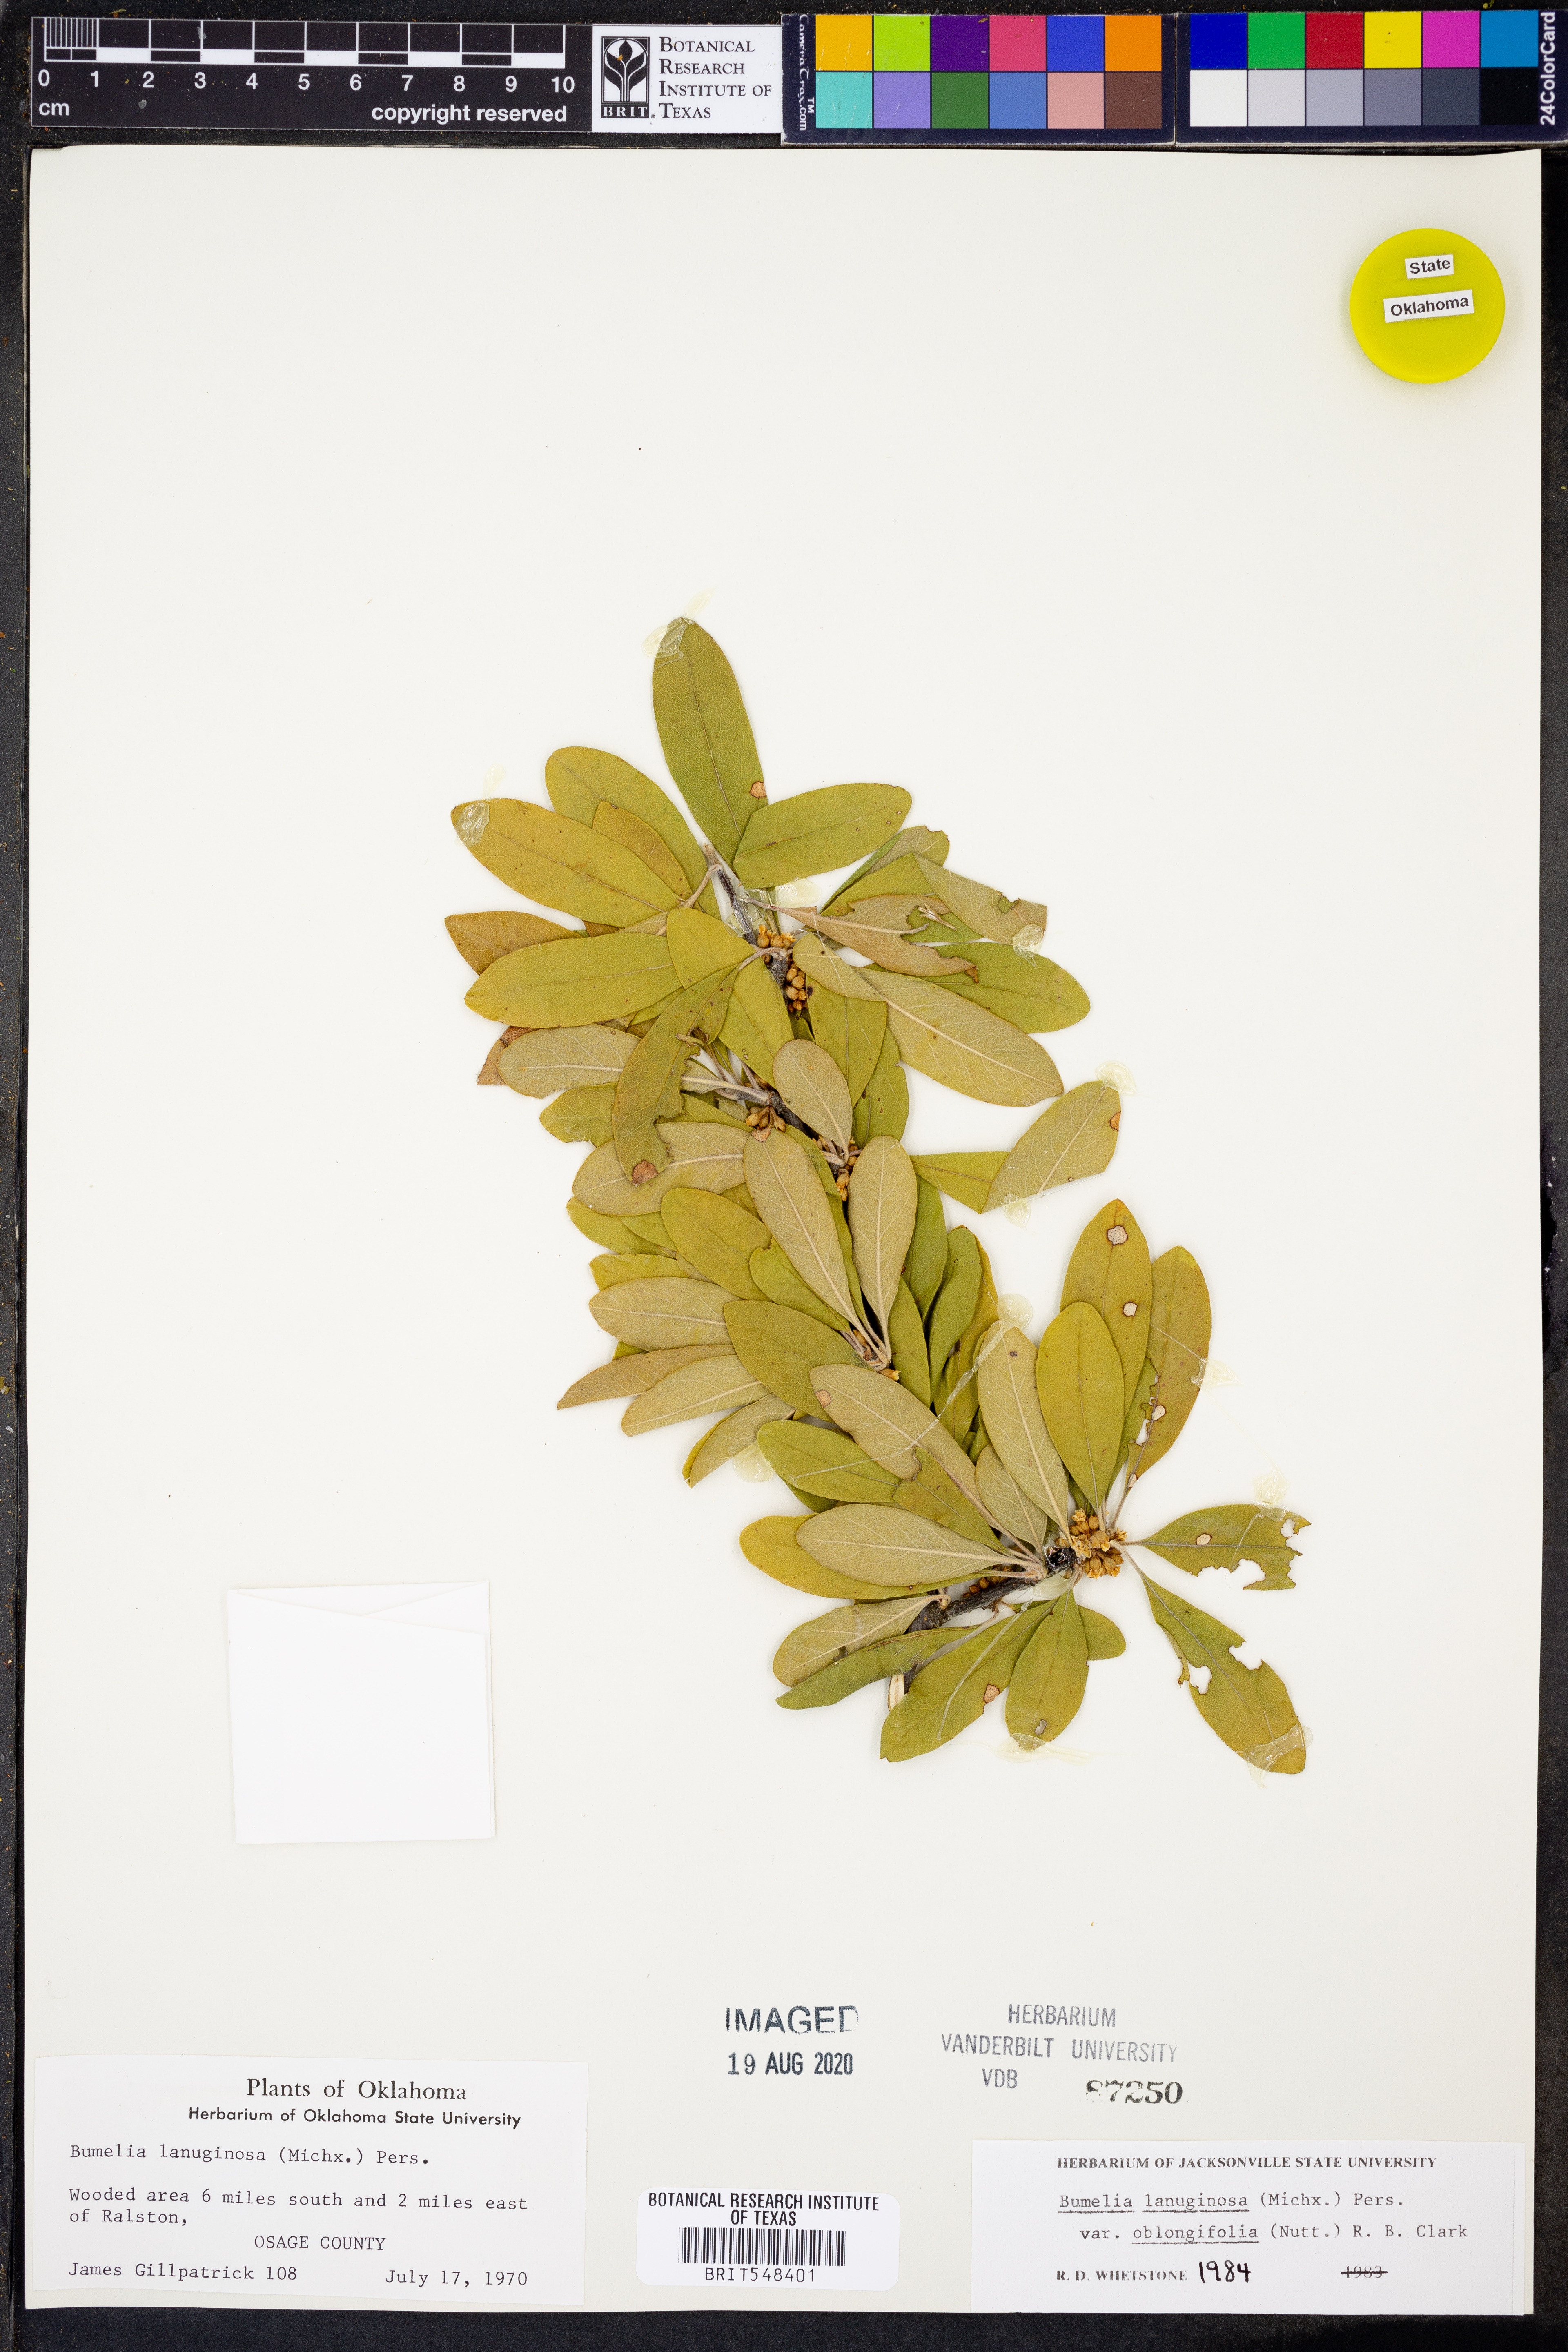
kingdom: Plantae
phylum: Tracheophyta
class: Magnoliopsida
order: Ericales
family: Sapotaceae
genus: Sideroxylon
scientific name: Sideroxylon lanuginosum
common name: Chittamwood
